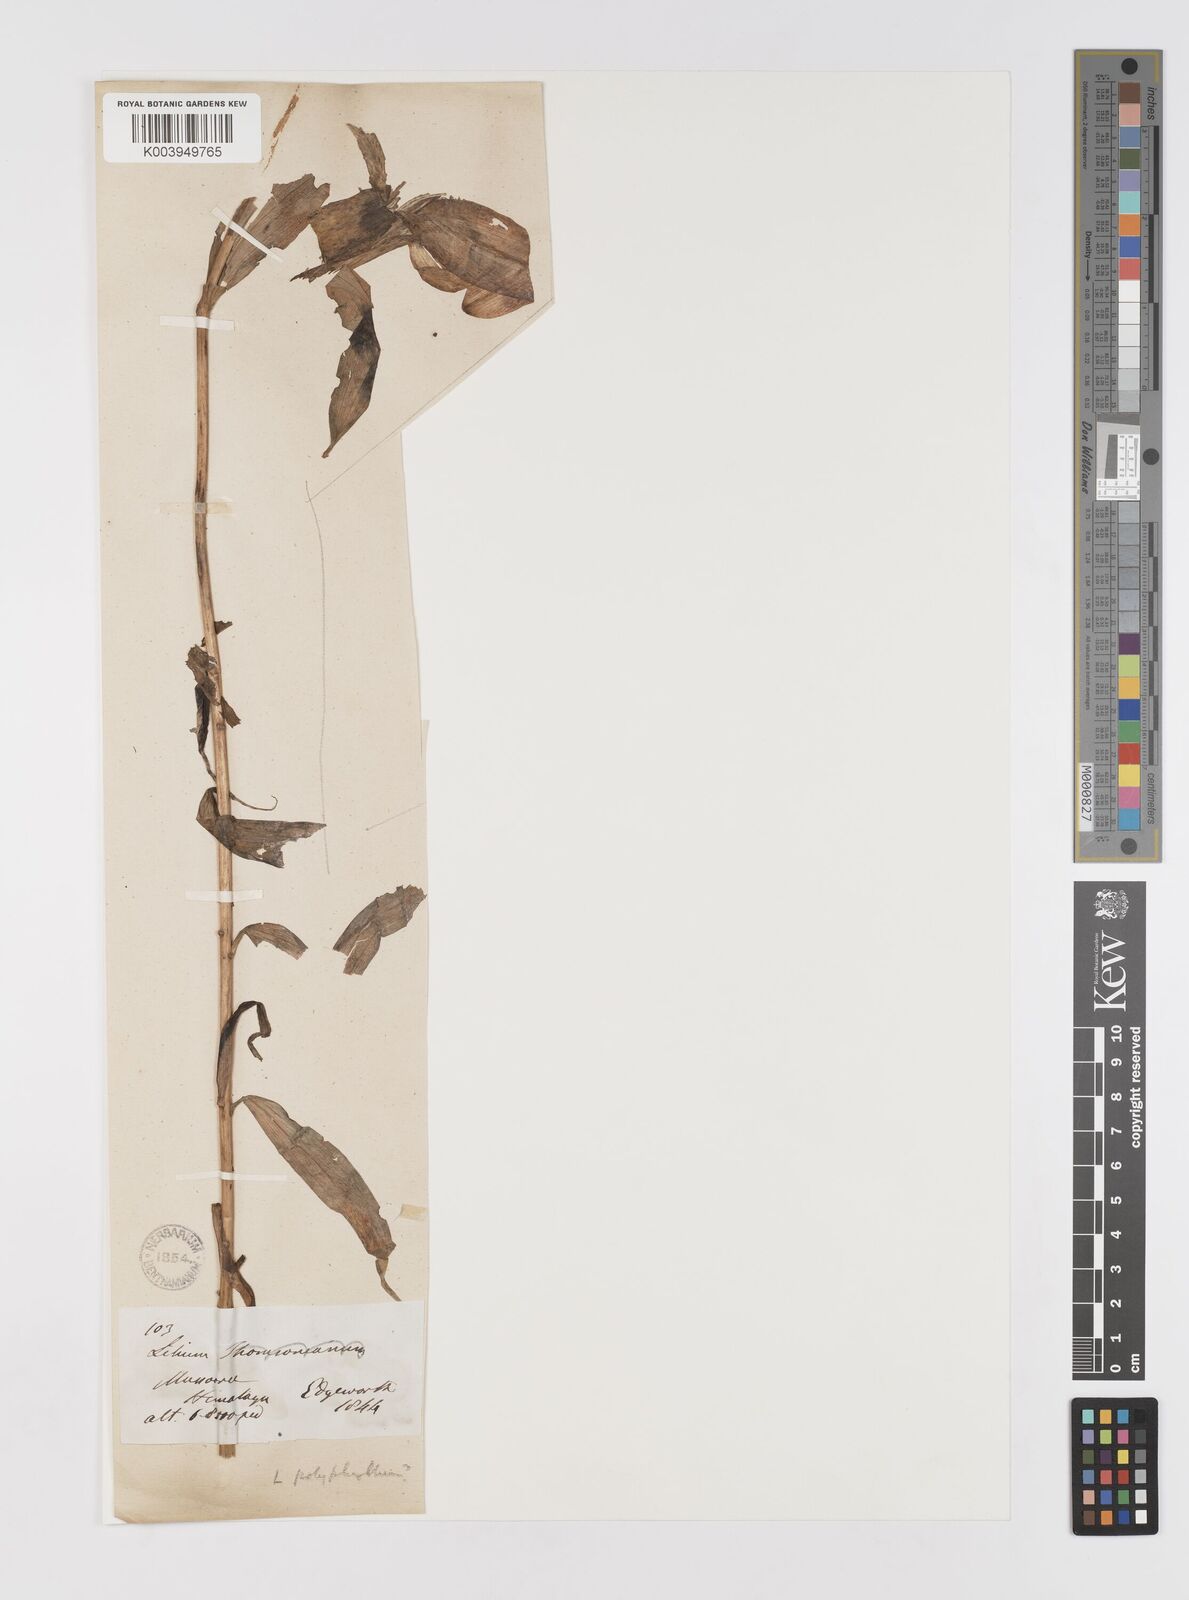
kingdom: Plantae
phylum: Tracheophyta
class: Liliopsida
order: Liliales
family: Liliaceae
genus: Lilium
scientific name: Lilium polyphyllum
